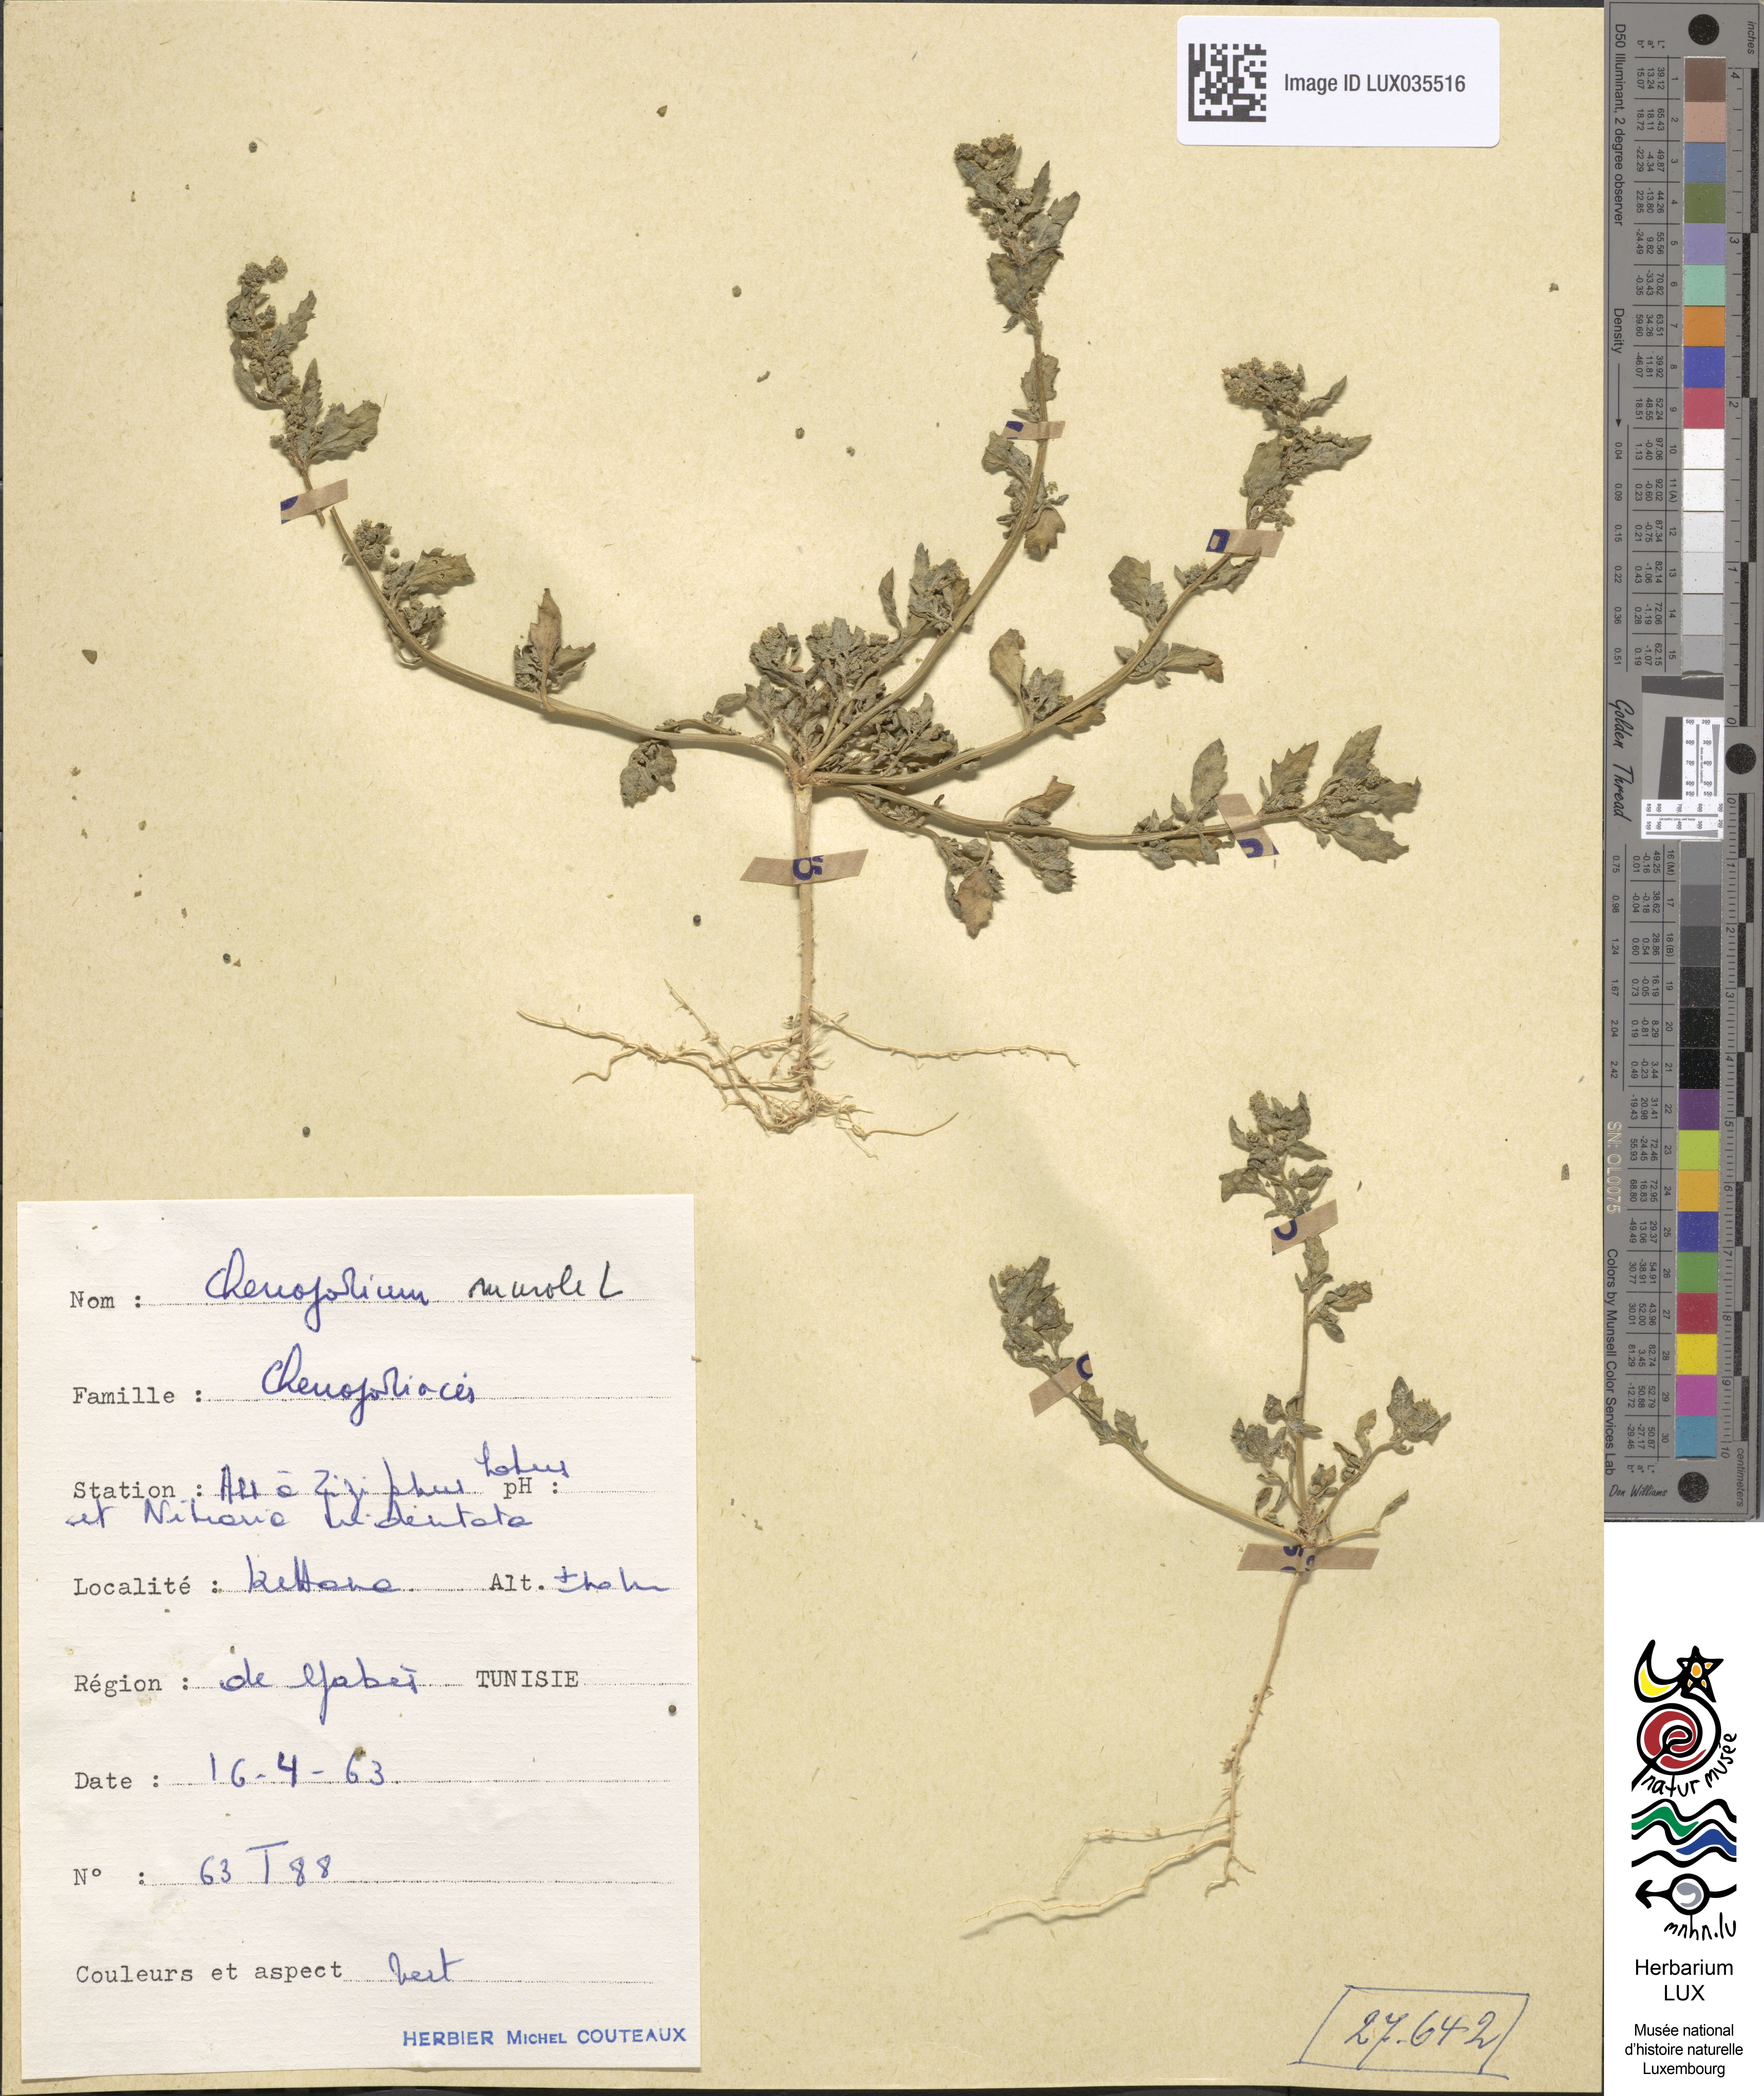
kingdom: Plantae
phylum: Tracheophyta
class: Magnoliopsida
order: Caryophyllales
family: Amaranthaceae
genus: Chenopodiastrum
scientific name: Chenopodiastrum murale
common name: Sowbane
